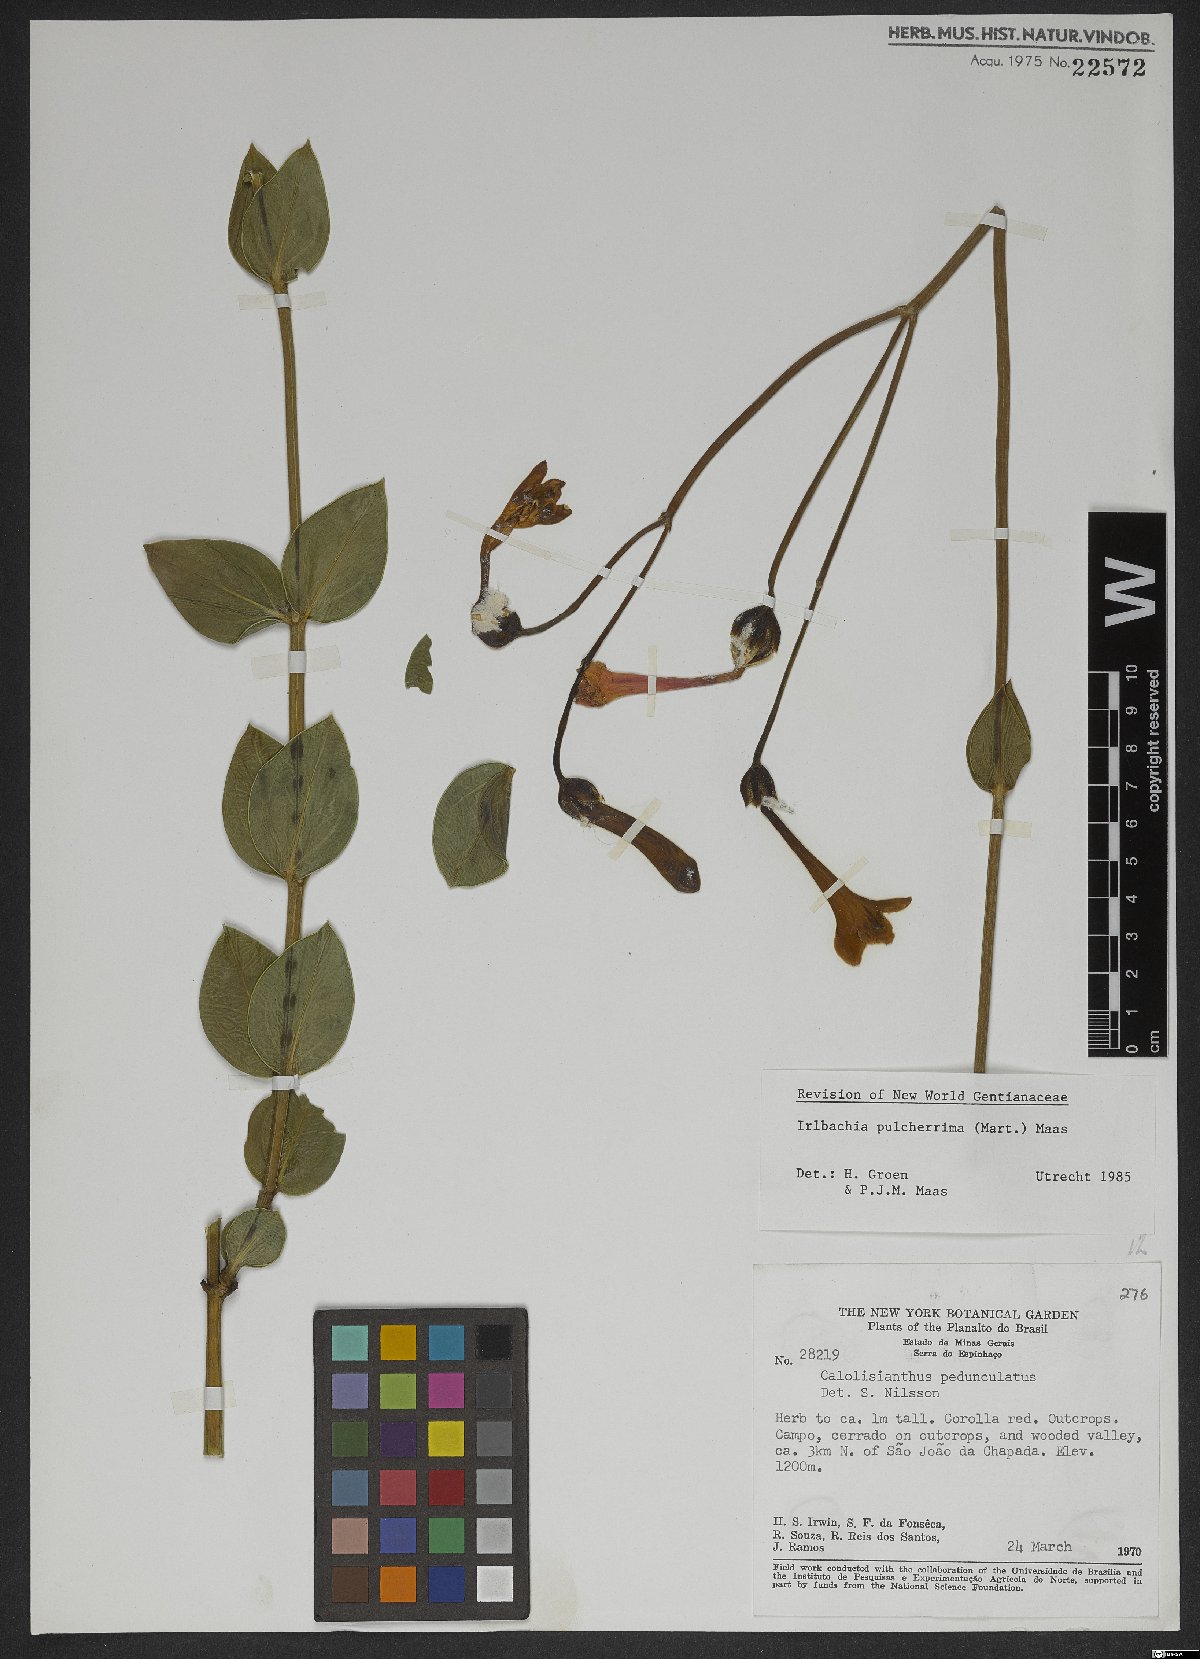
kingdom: Plantae
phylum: Tracheophyta
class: Magnoliopsida
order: Gentianales
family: Gentianaceae
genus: Calolisianthus
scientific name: Calolisianthus pulcherrimus
